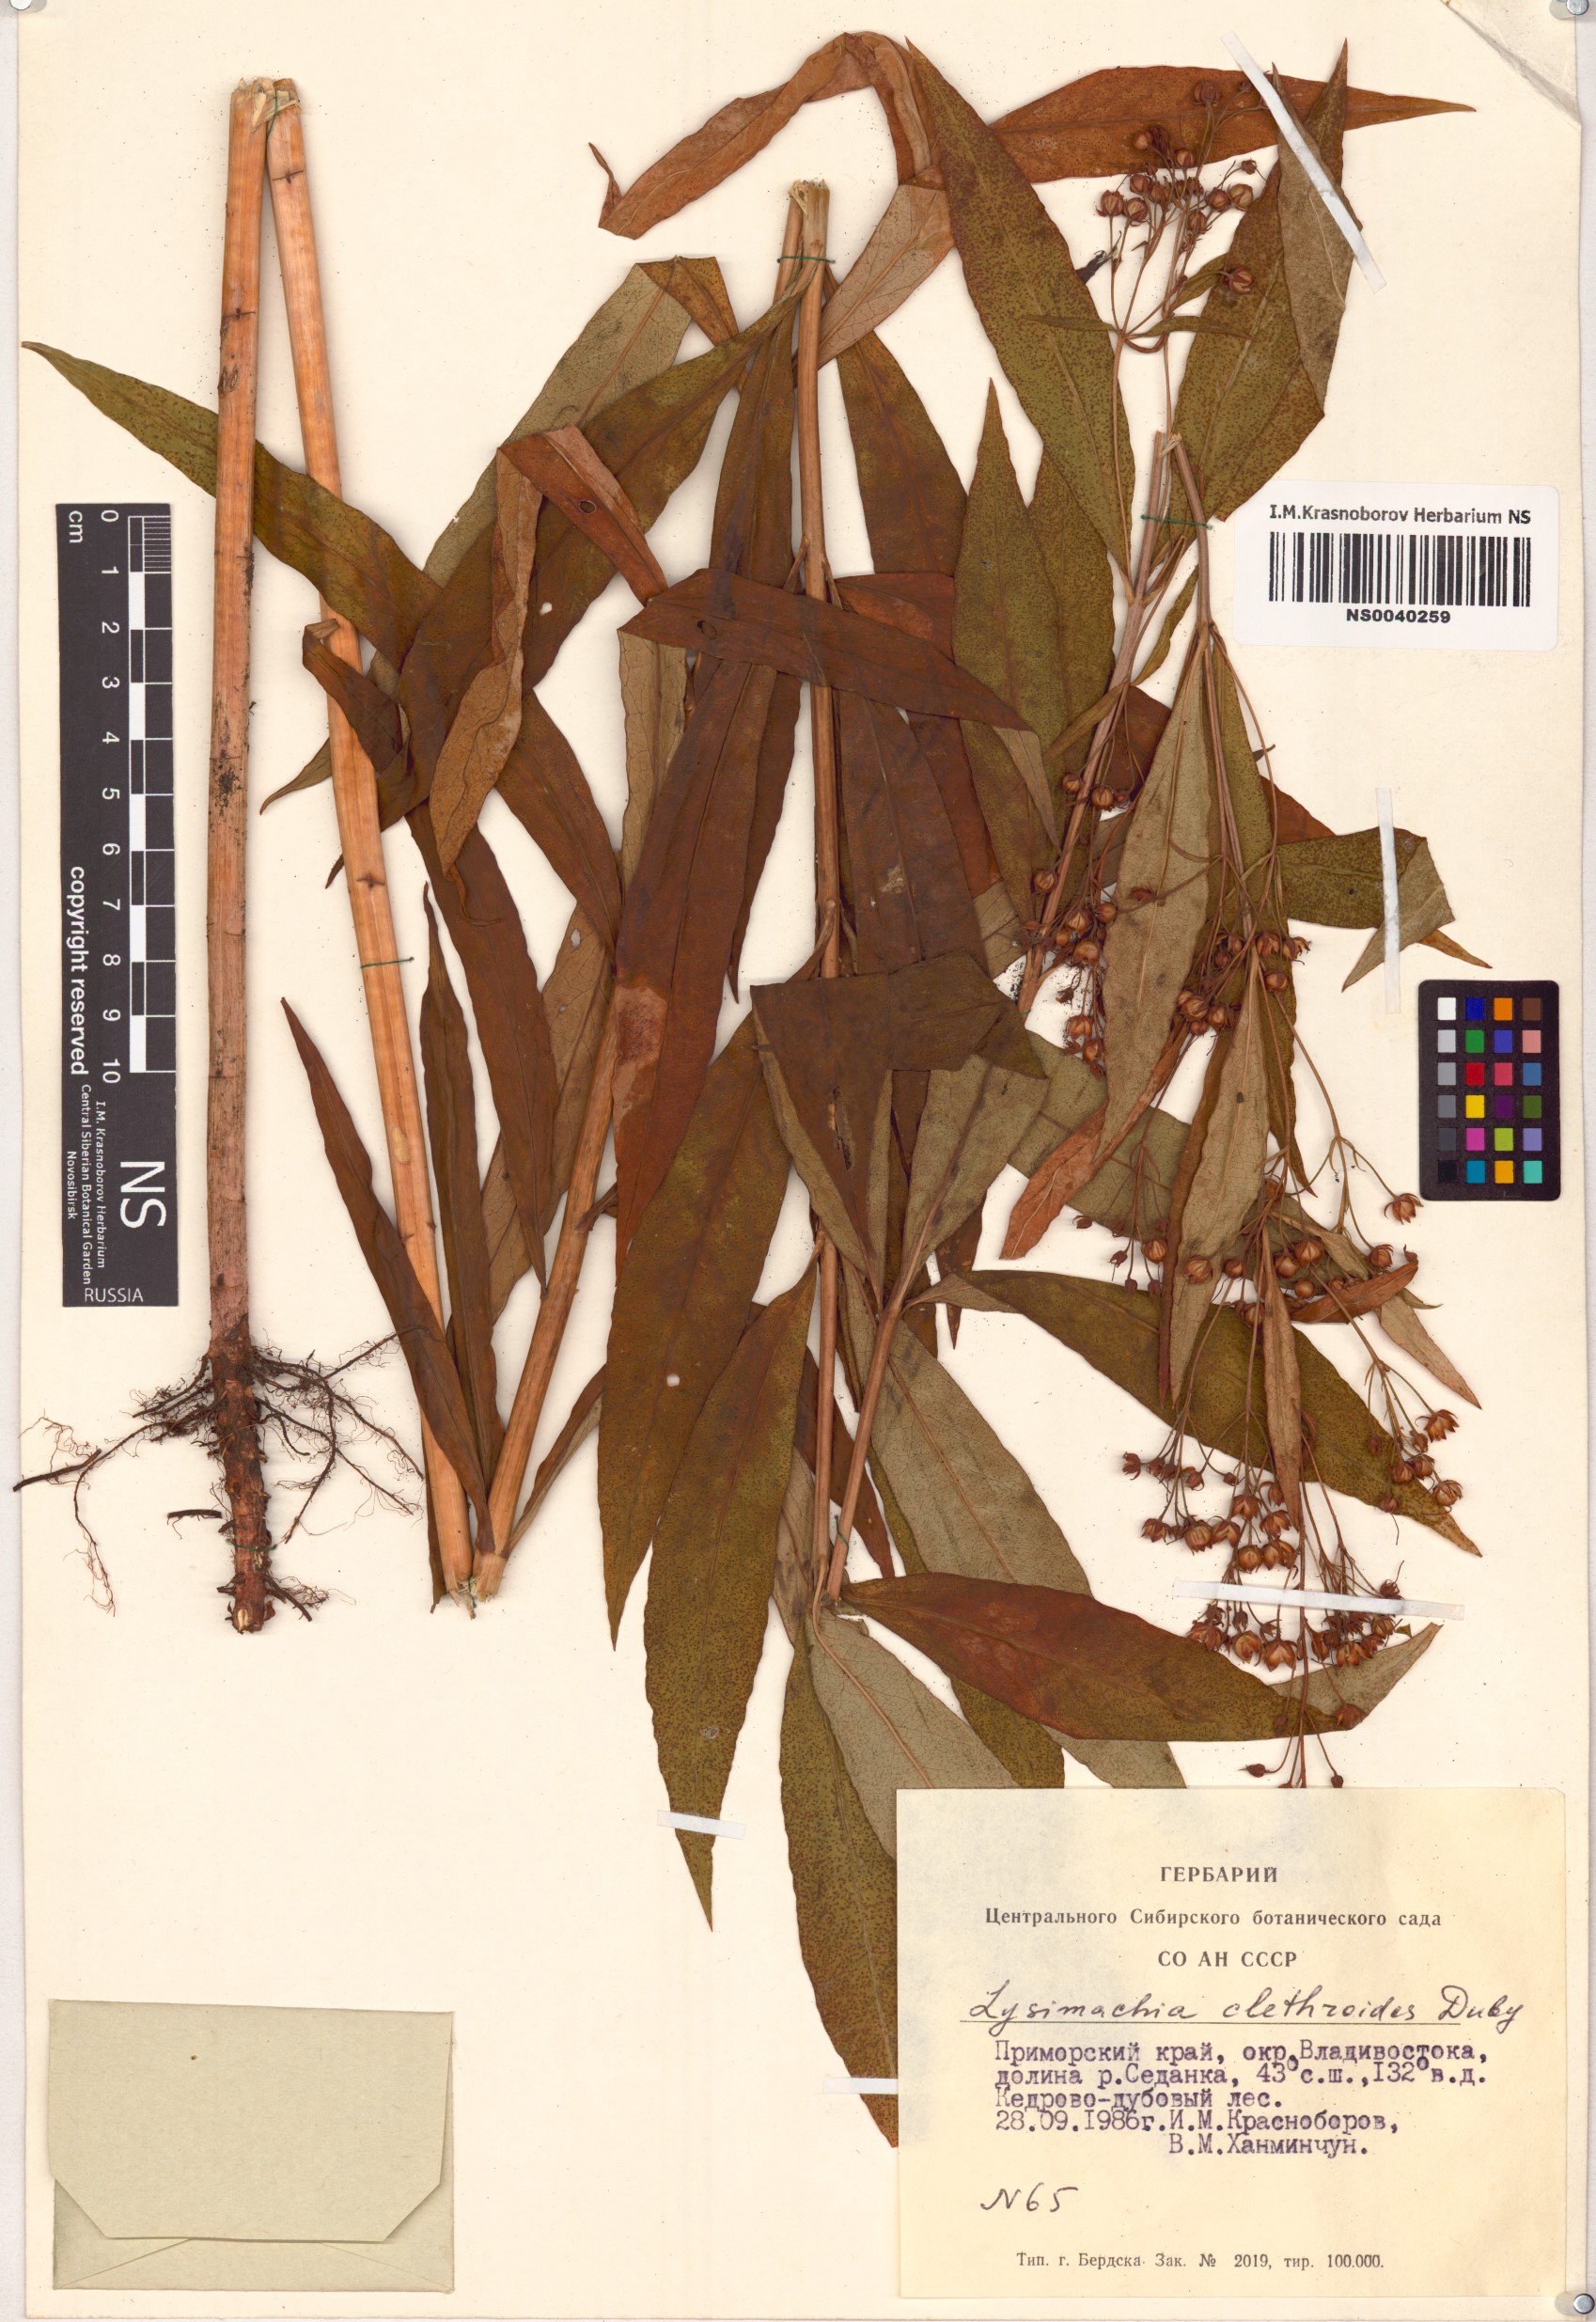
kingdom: Plantae
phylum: Tracheophyta
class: Magnoliopsida
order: Ericales
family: Primulaceae
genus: Lysimachia
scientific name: Lysimachia clethroides
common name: Gooseneck loosestrife
